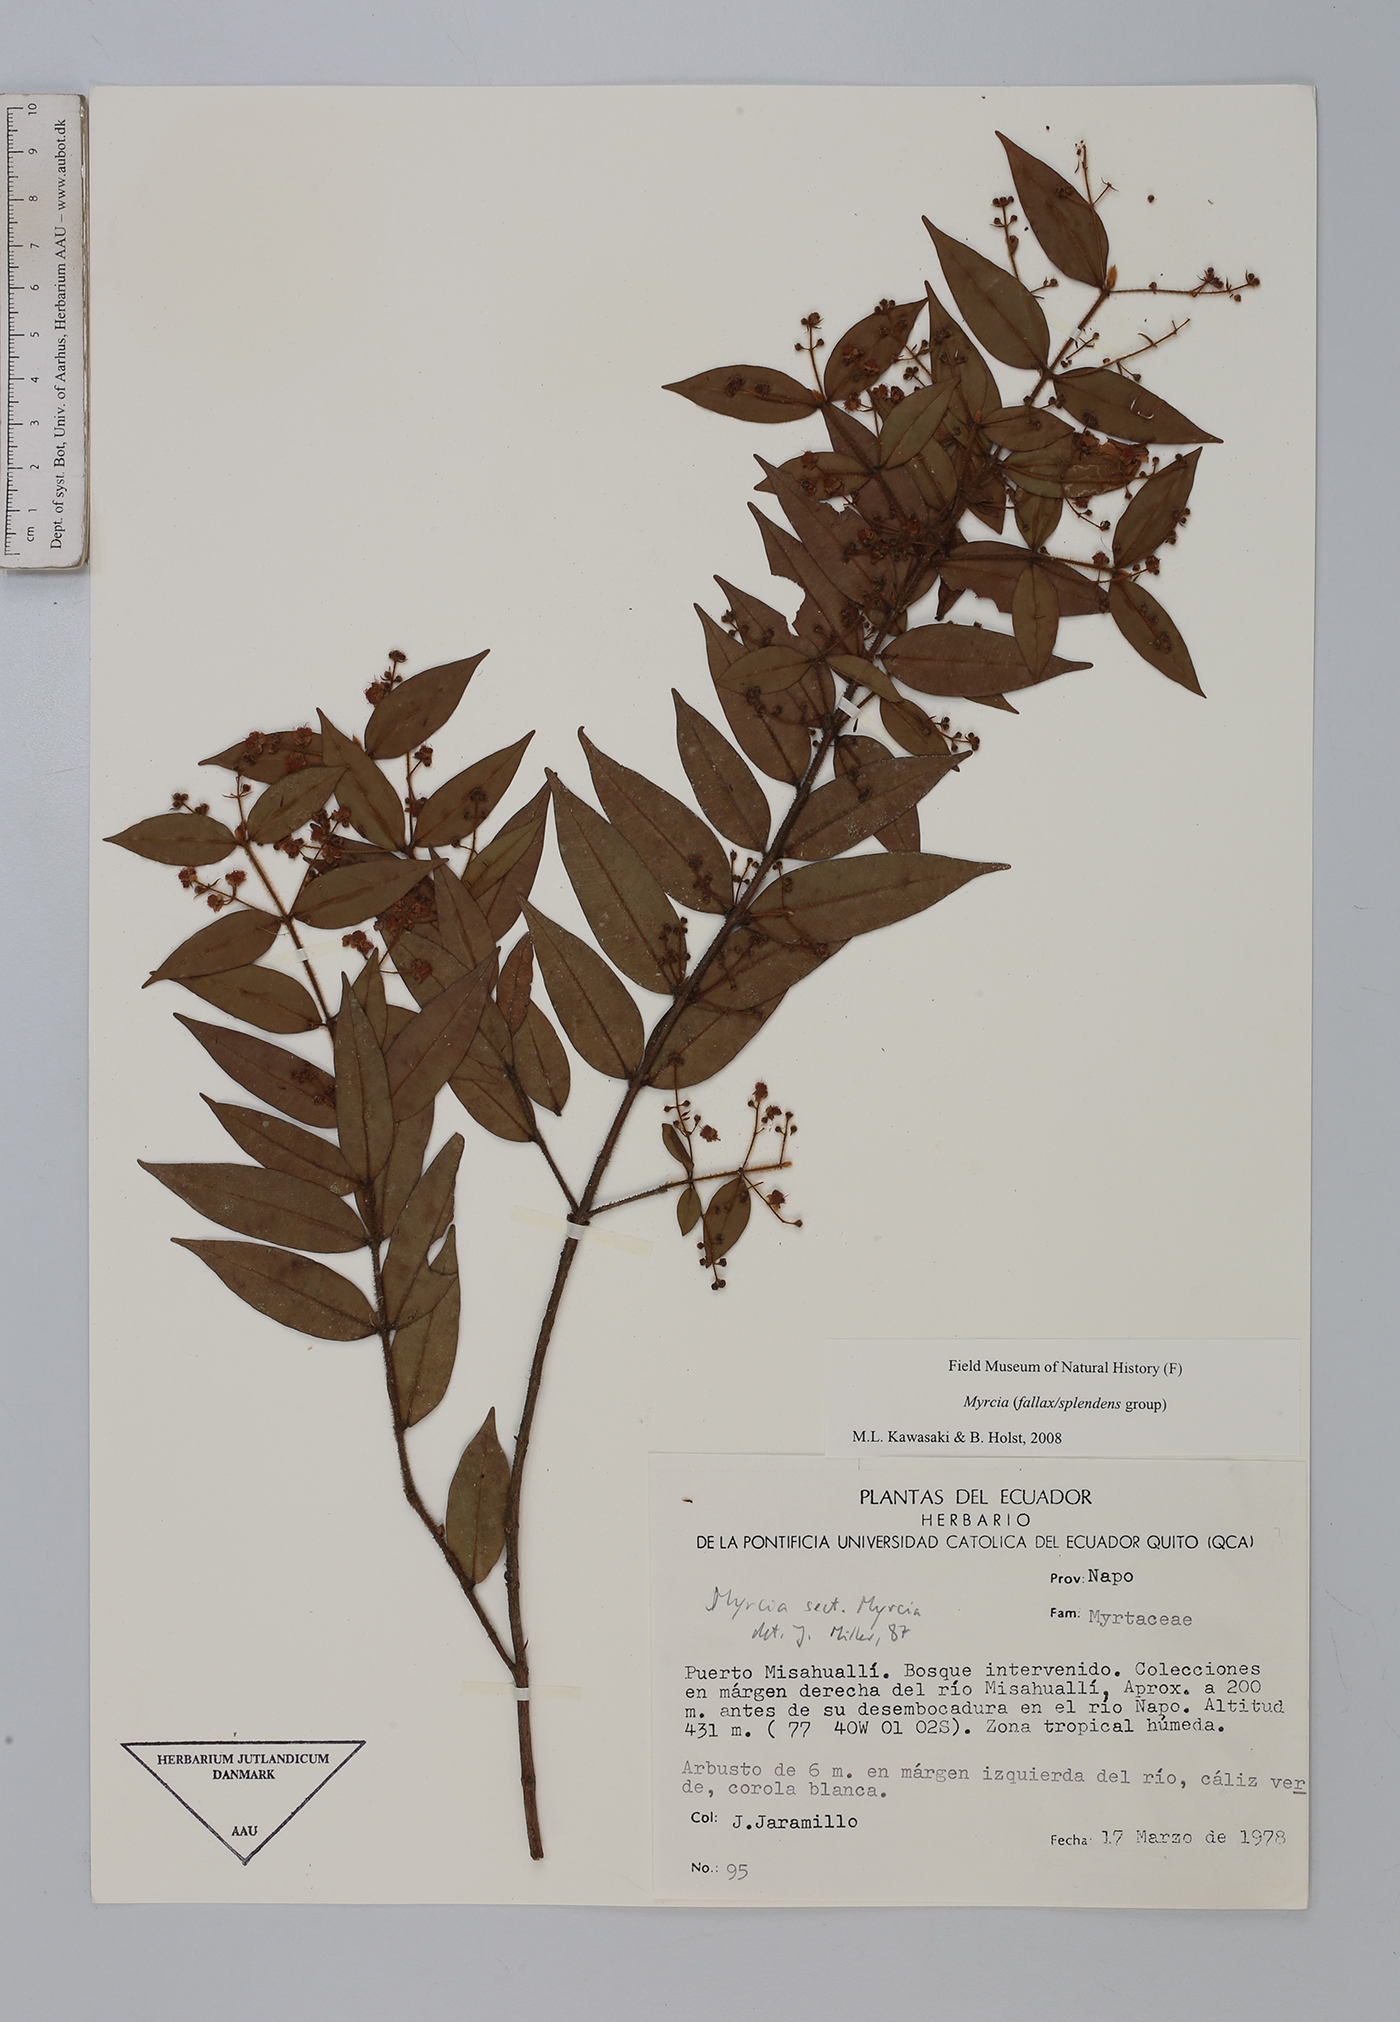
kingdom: Plantae
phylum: Tracheophyta
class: Magnoliopsida
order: Myrtales
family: Myrtaceae
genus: Myrcia
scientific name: Myrcia
